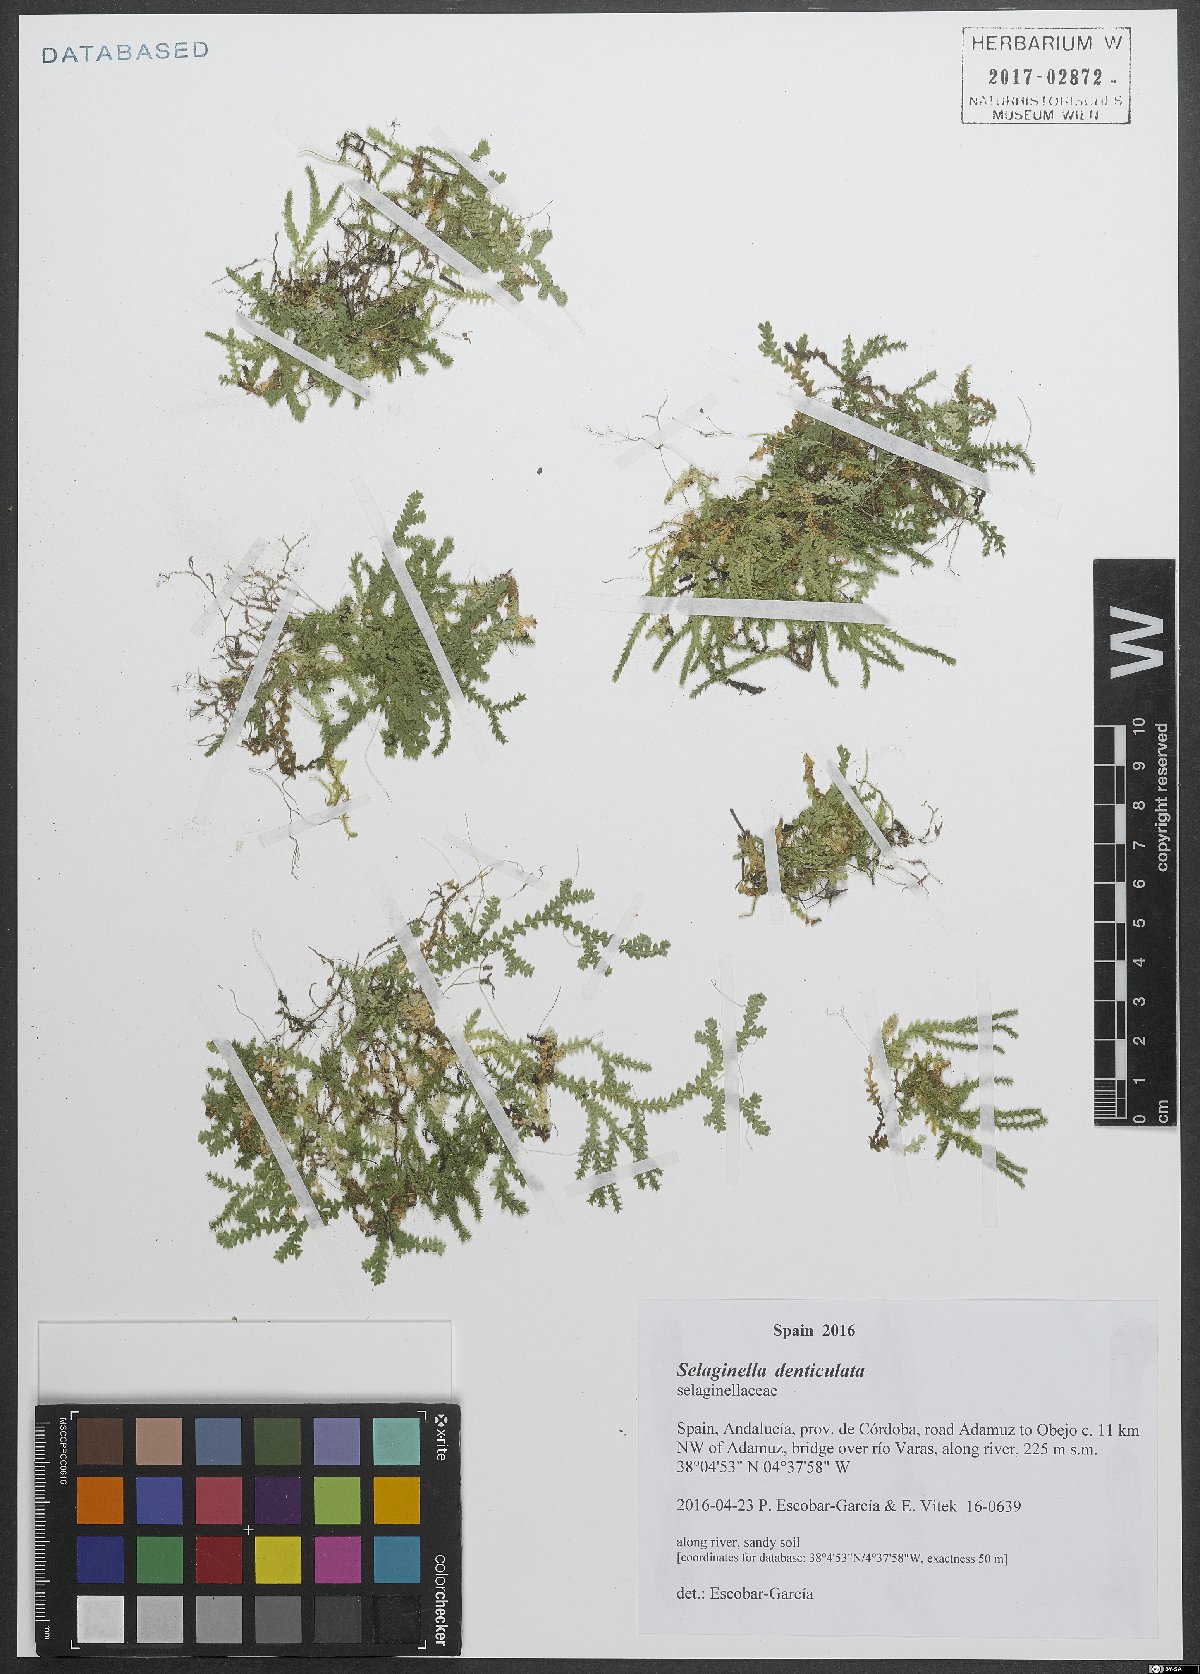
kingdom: Plantae
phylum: Tracheophyta
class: Lycopodiopsida
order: Selaginellales
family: Selaginellaceae
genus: Selaginella
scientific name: Selaginella denticulata
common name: Toothed-leaved clubmoss
